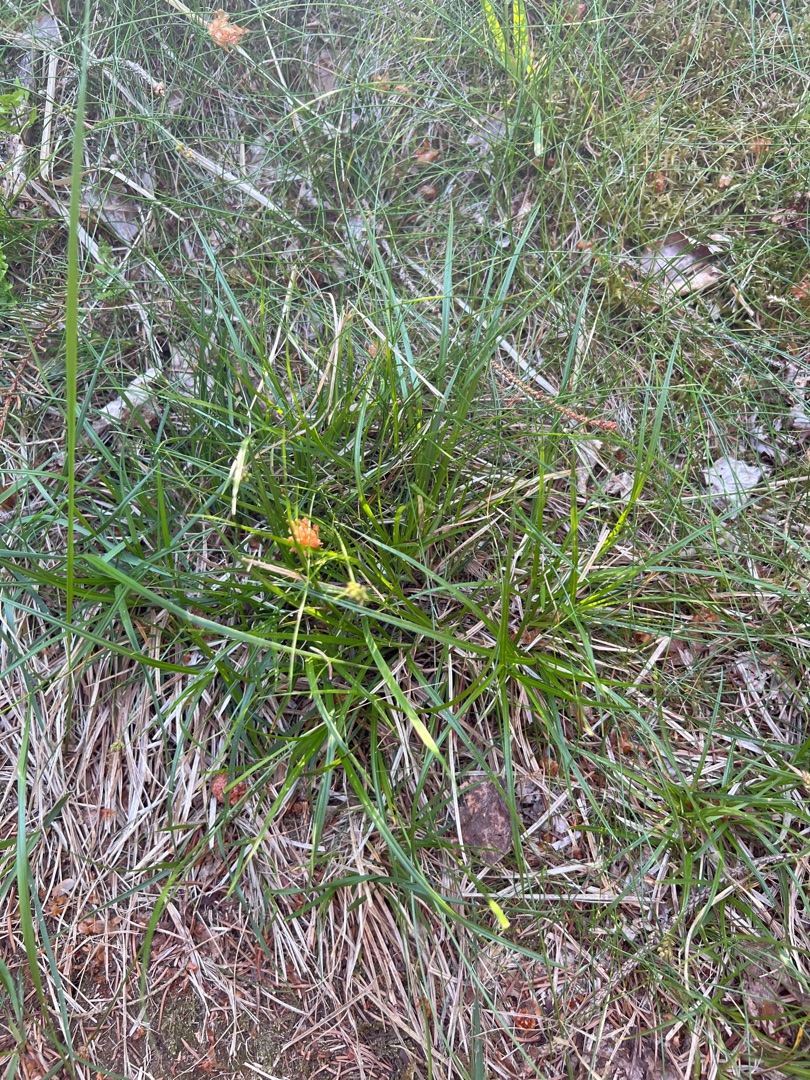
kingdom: Plantae
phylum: Tracheophyta
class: Liliopsida
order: Poales
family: Cyperaceae
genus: Carex
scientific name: Carex pilulifera
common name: Pille-star
